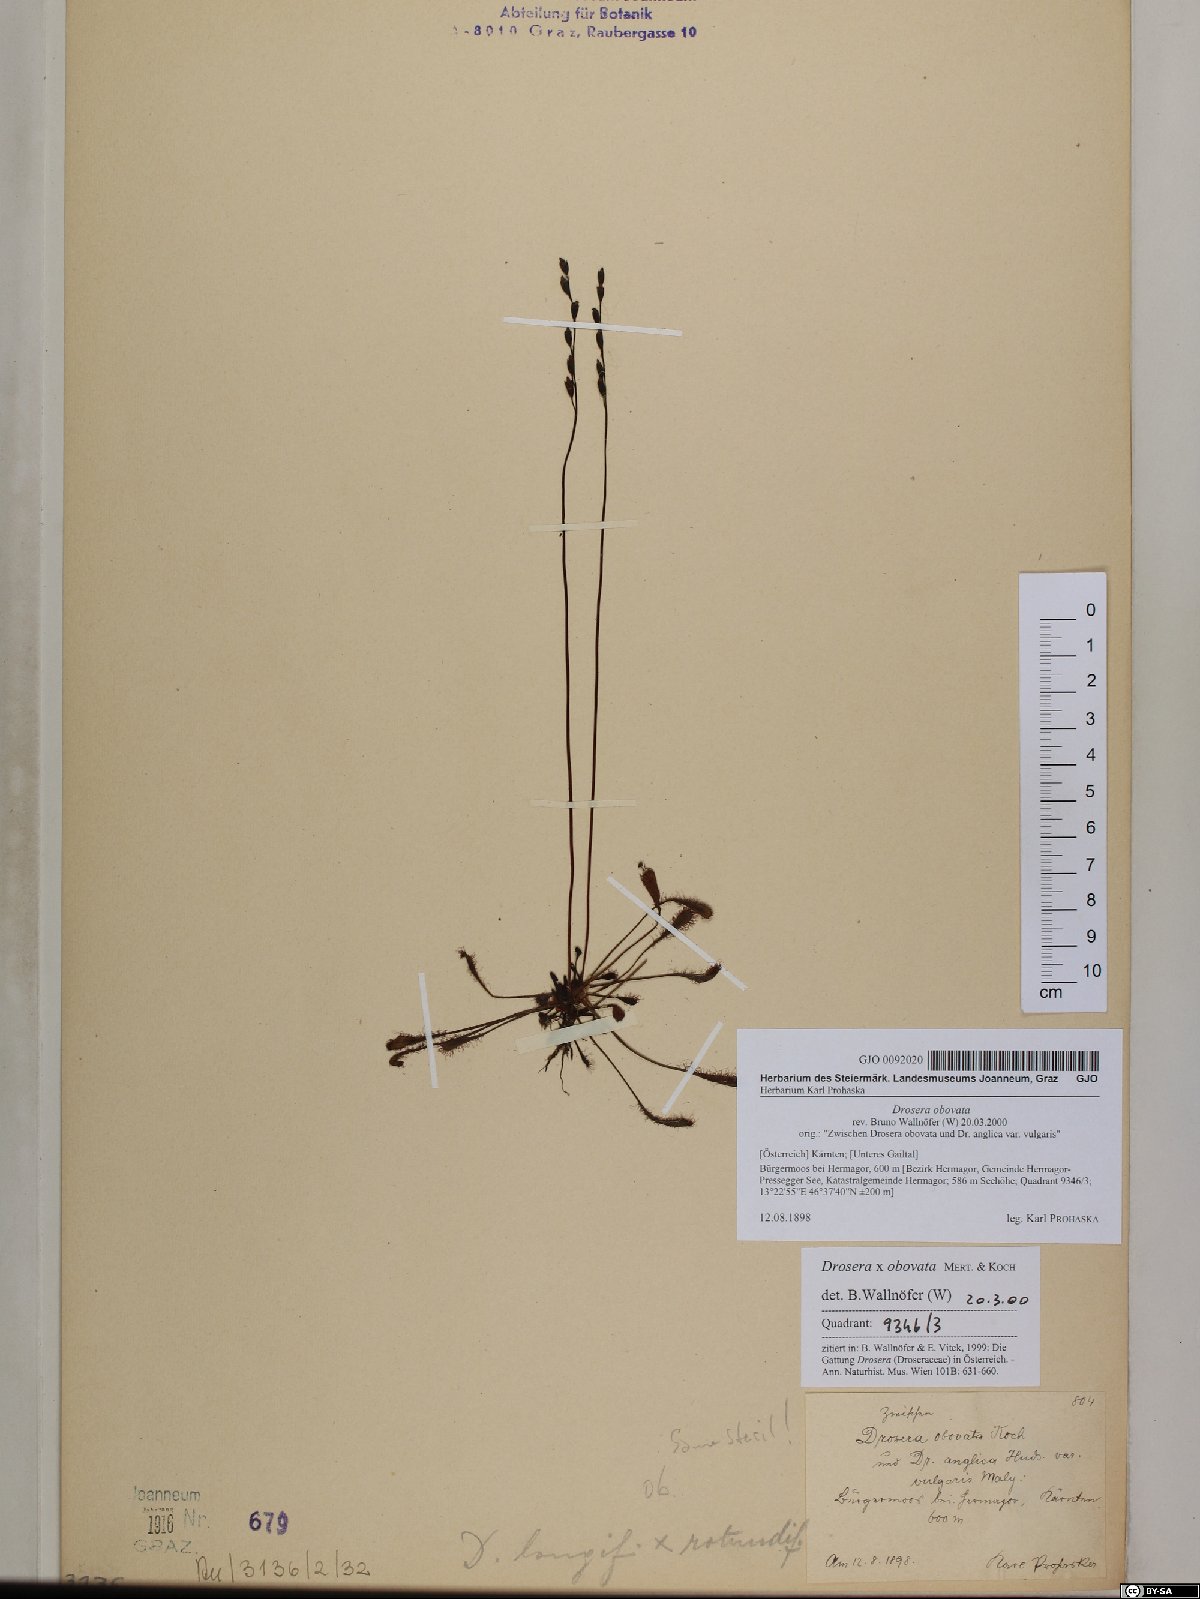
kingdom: Plantae
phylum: Tracheophyta
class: Magnoliopsida
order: Caryophyllales
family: Droseraceae
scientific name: Droseraceae
